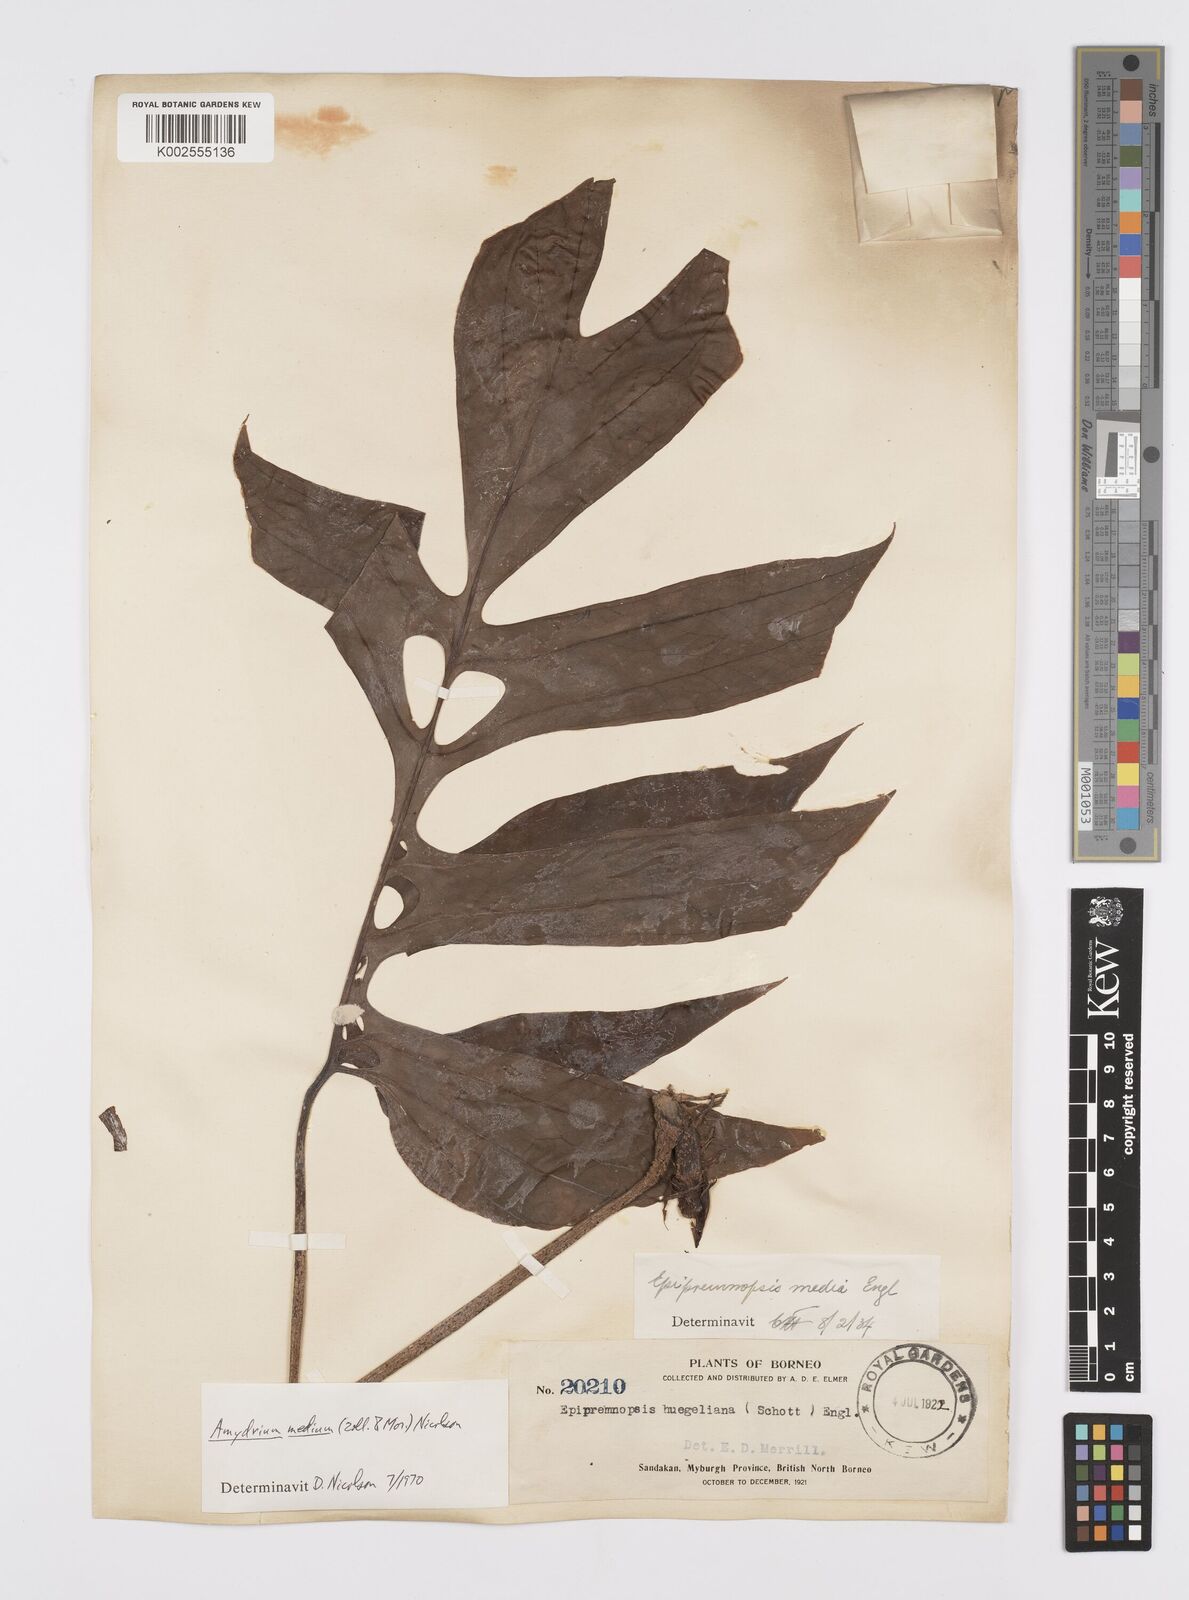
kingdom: Plantae
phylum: Tracheophyta
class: Liliopsida
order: Alismatales
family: Araceae
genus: Amydrium
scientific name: Amydrium medium
